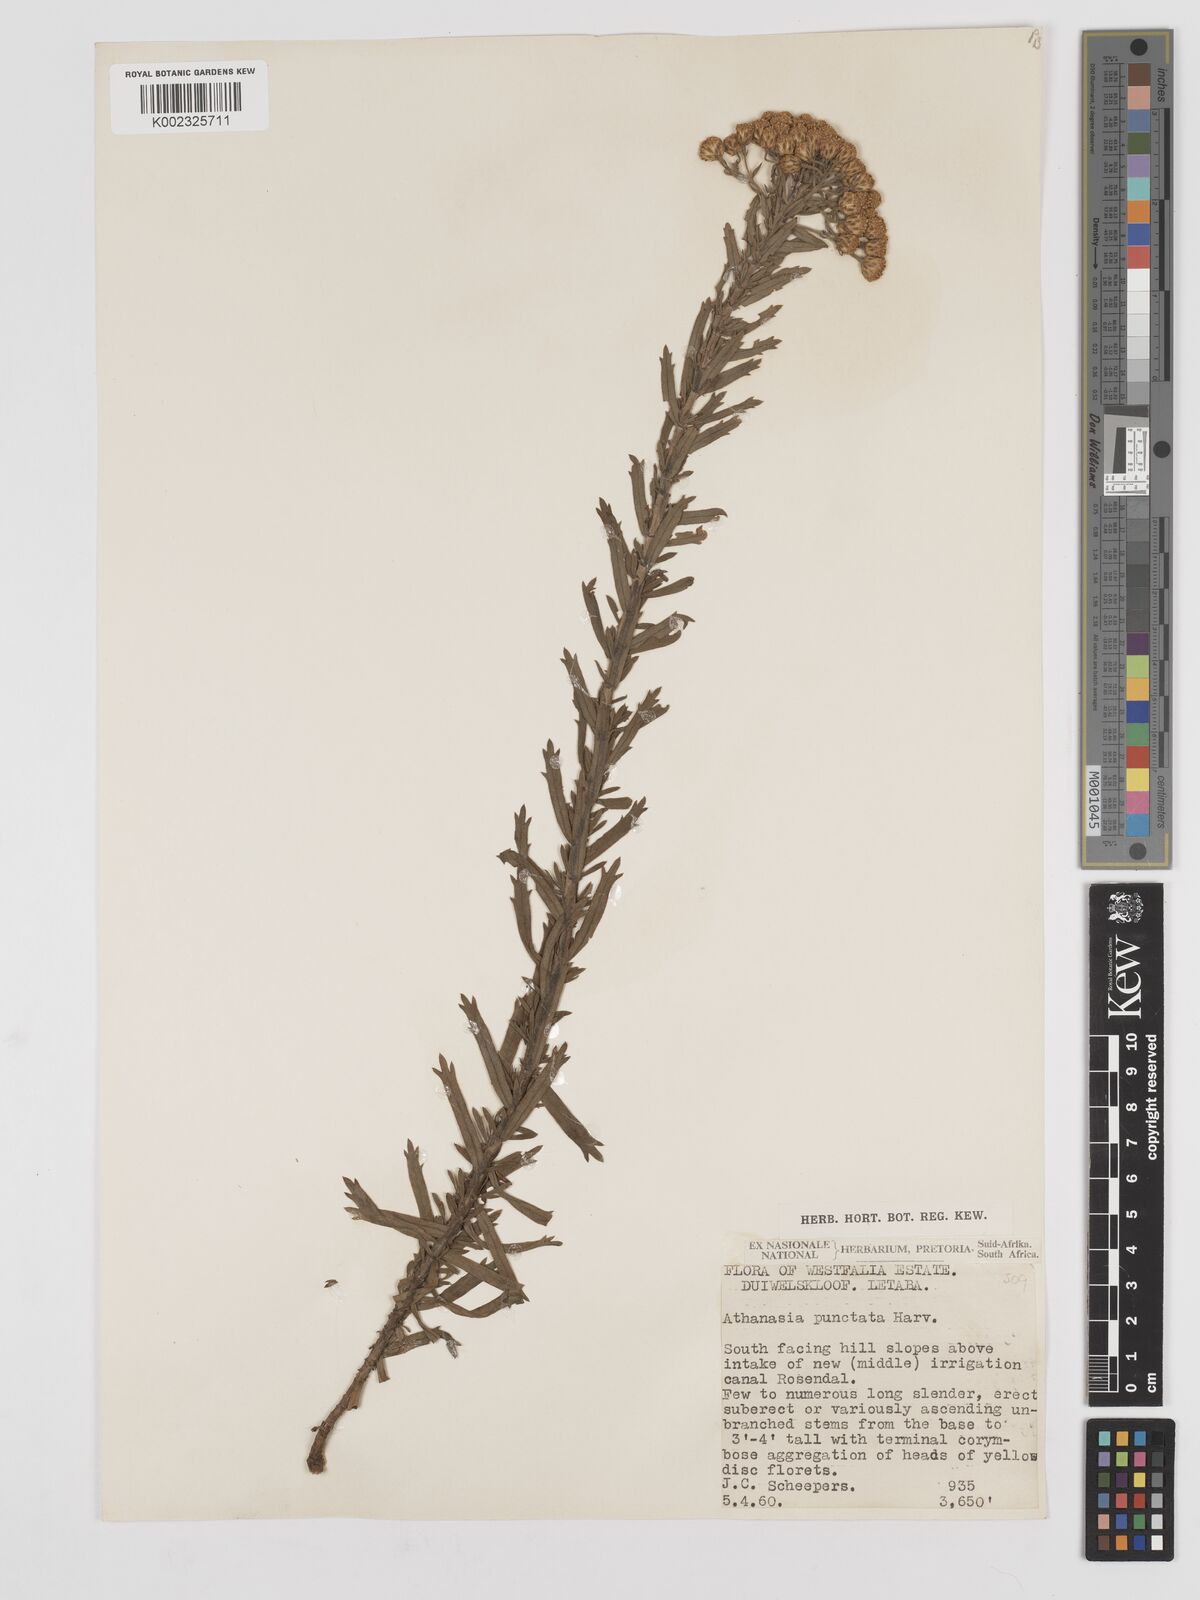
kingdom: Plantae
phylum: Tracheophyta
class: Magnoliopsida
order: Asterales
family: Asteraceae
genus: Inulanthera
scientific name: Inulanthera dregeana
